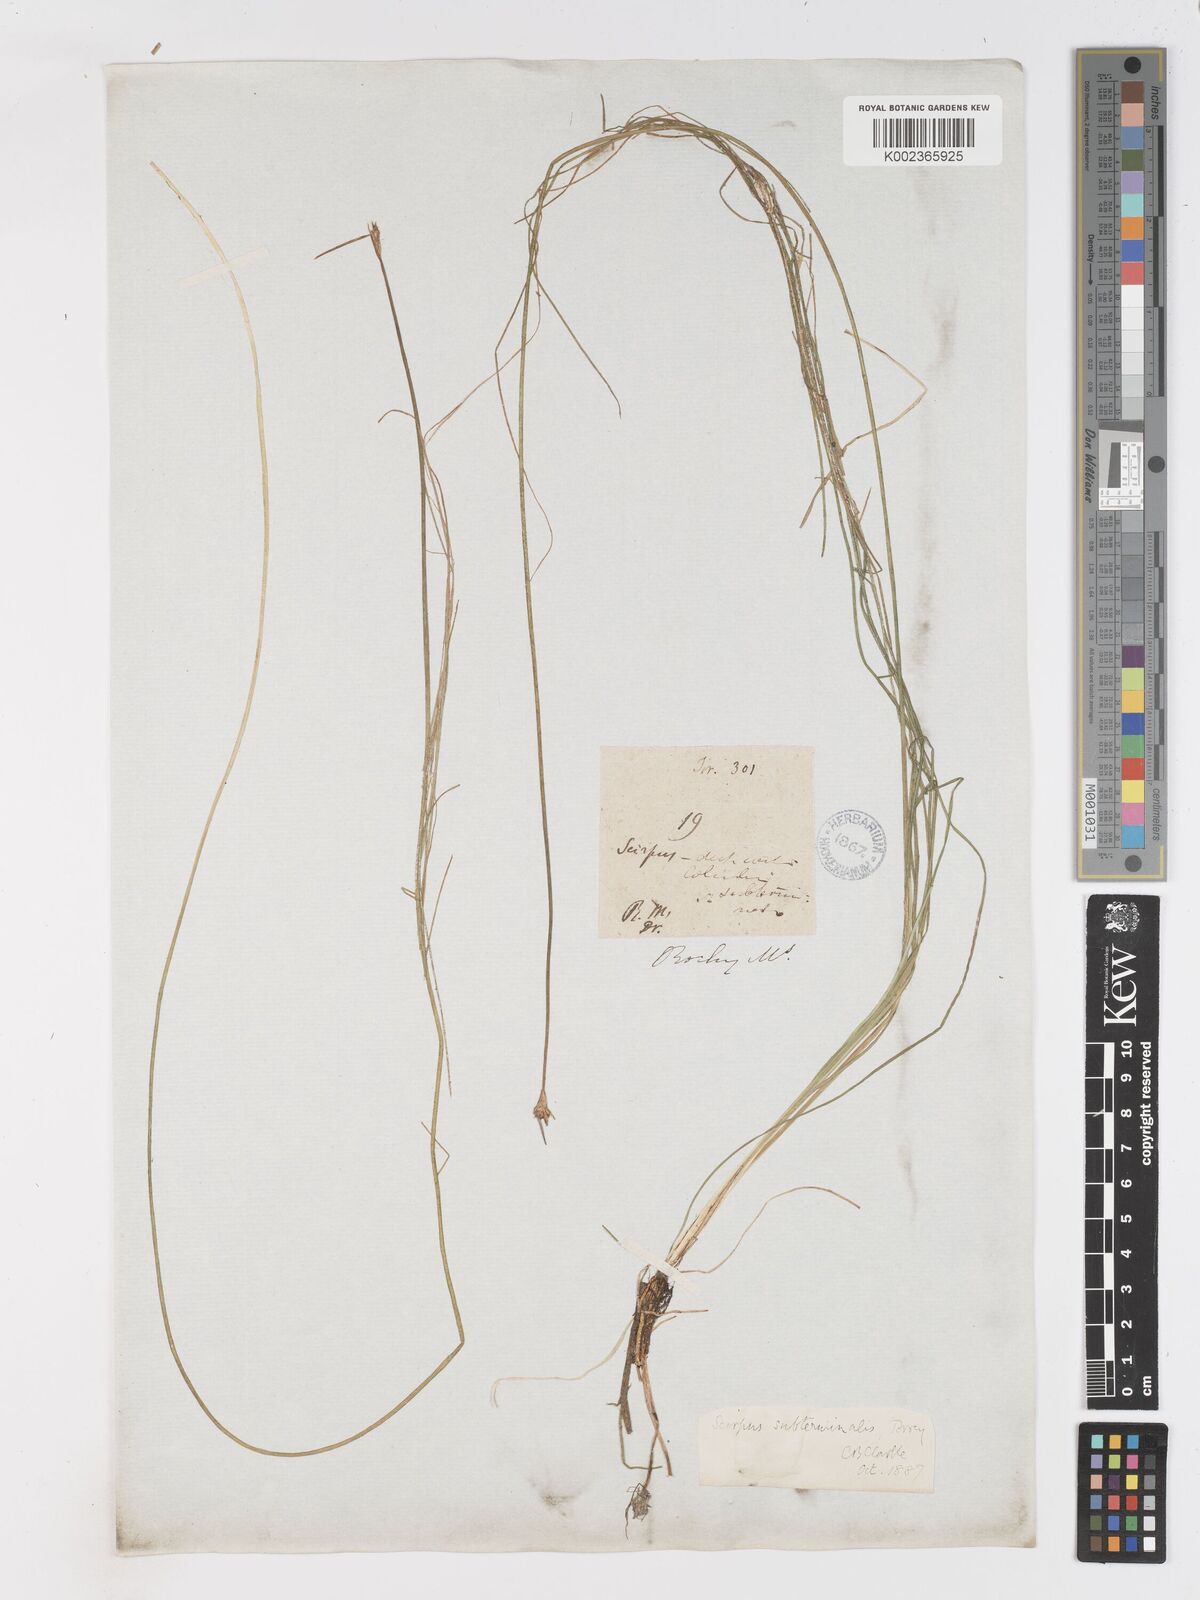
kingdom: Plantae
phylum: Tracheophyta
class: Liliopsida
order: Poales
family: Cyperaceae
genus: Schoenoplectus
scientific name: Schoenoplectus subterminalis
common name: Swaying bulrush
